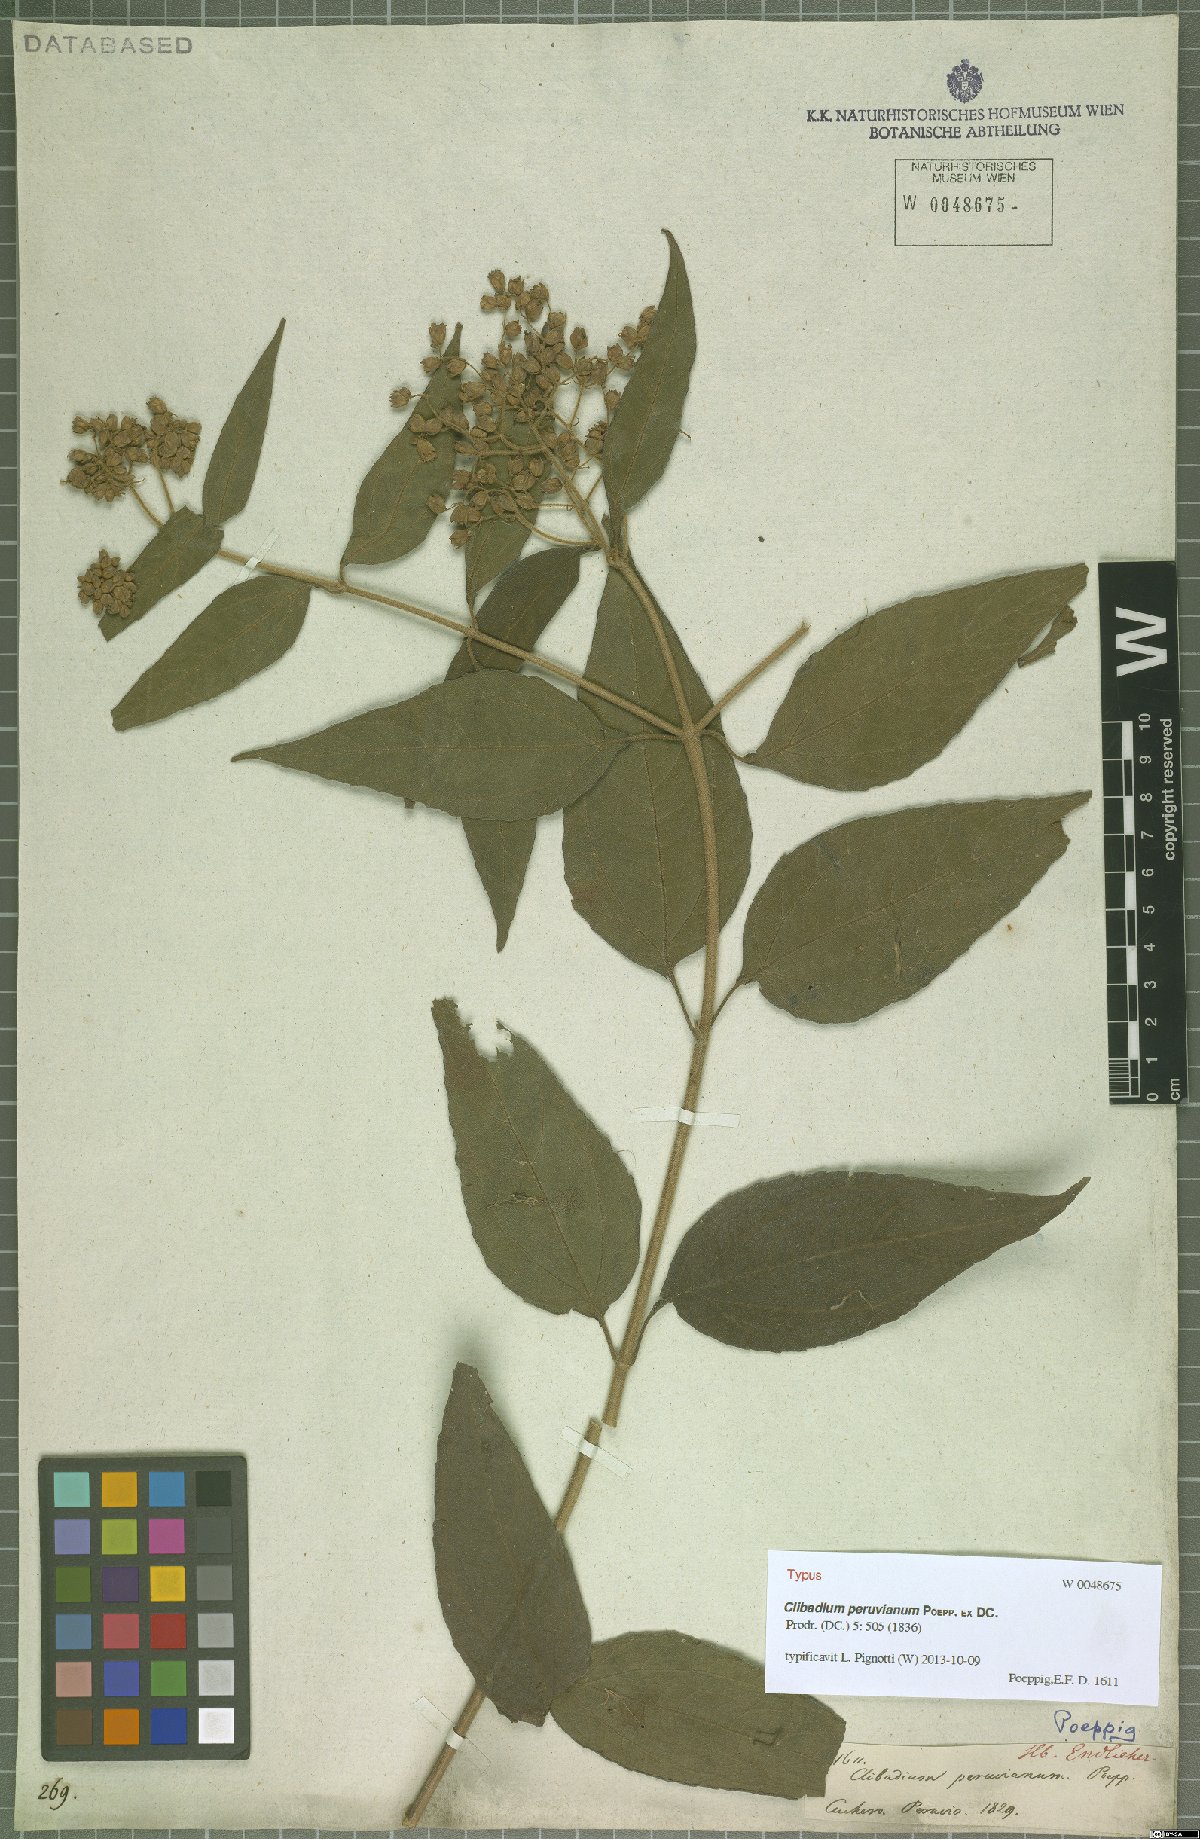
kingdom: Plantae
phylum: Tracheophyta
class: Magnoliopsida
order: Asterales
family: Asteraceae
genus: Clibadium
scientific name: Clibadium peruvianum
